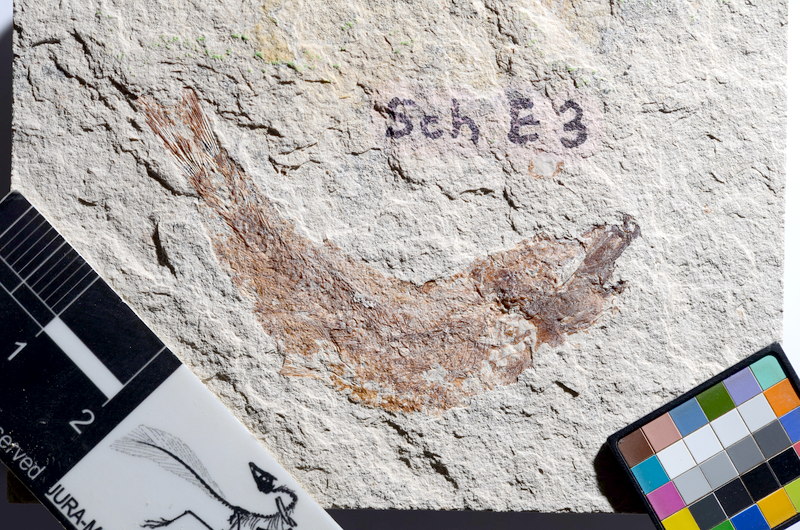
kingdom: Animalia
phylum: Chordata
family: Ascalaboidae
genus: Tharsis
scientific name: Tharsis dubius
